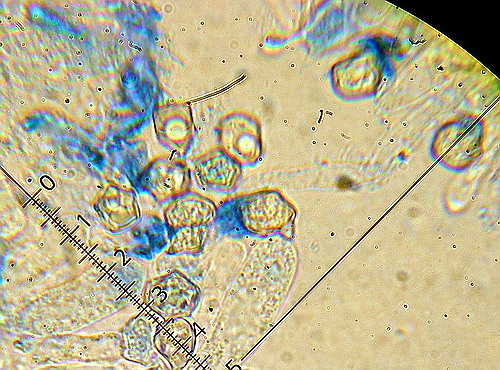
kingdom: Fungi
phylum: Basidiomycota
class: Agaricomycetes
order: Agaricales
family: Entolomataceae
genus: Entoloma
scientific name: Entoloma rhodopolium
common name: skov-rødblad
